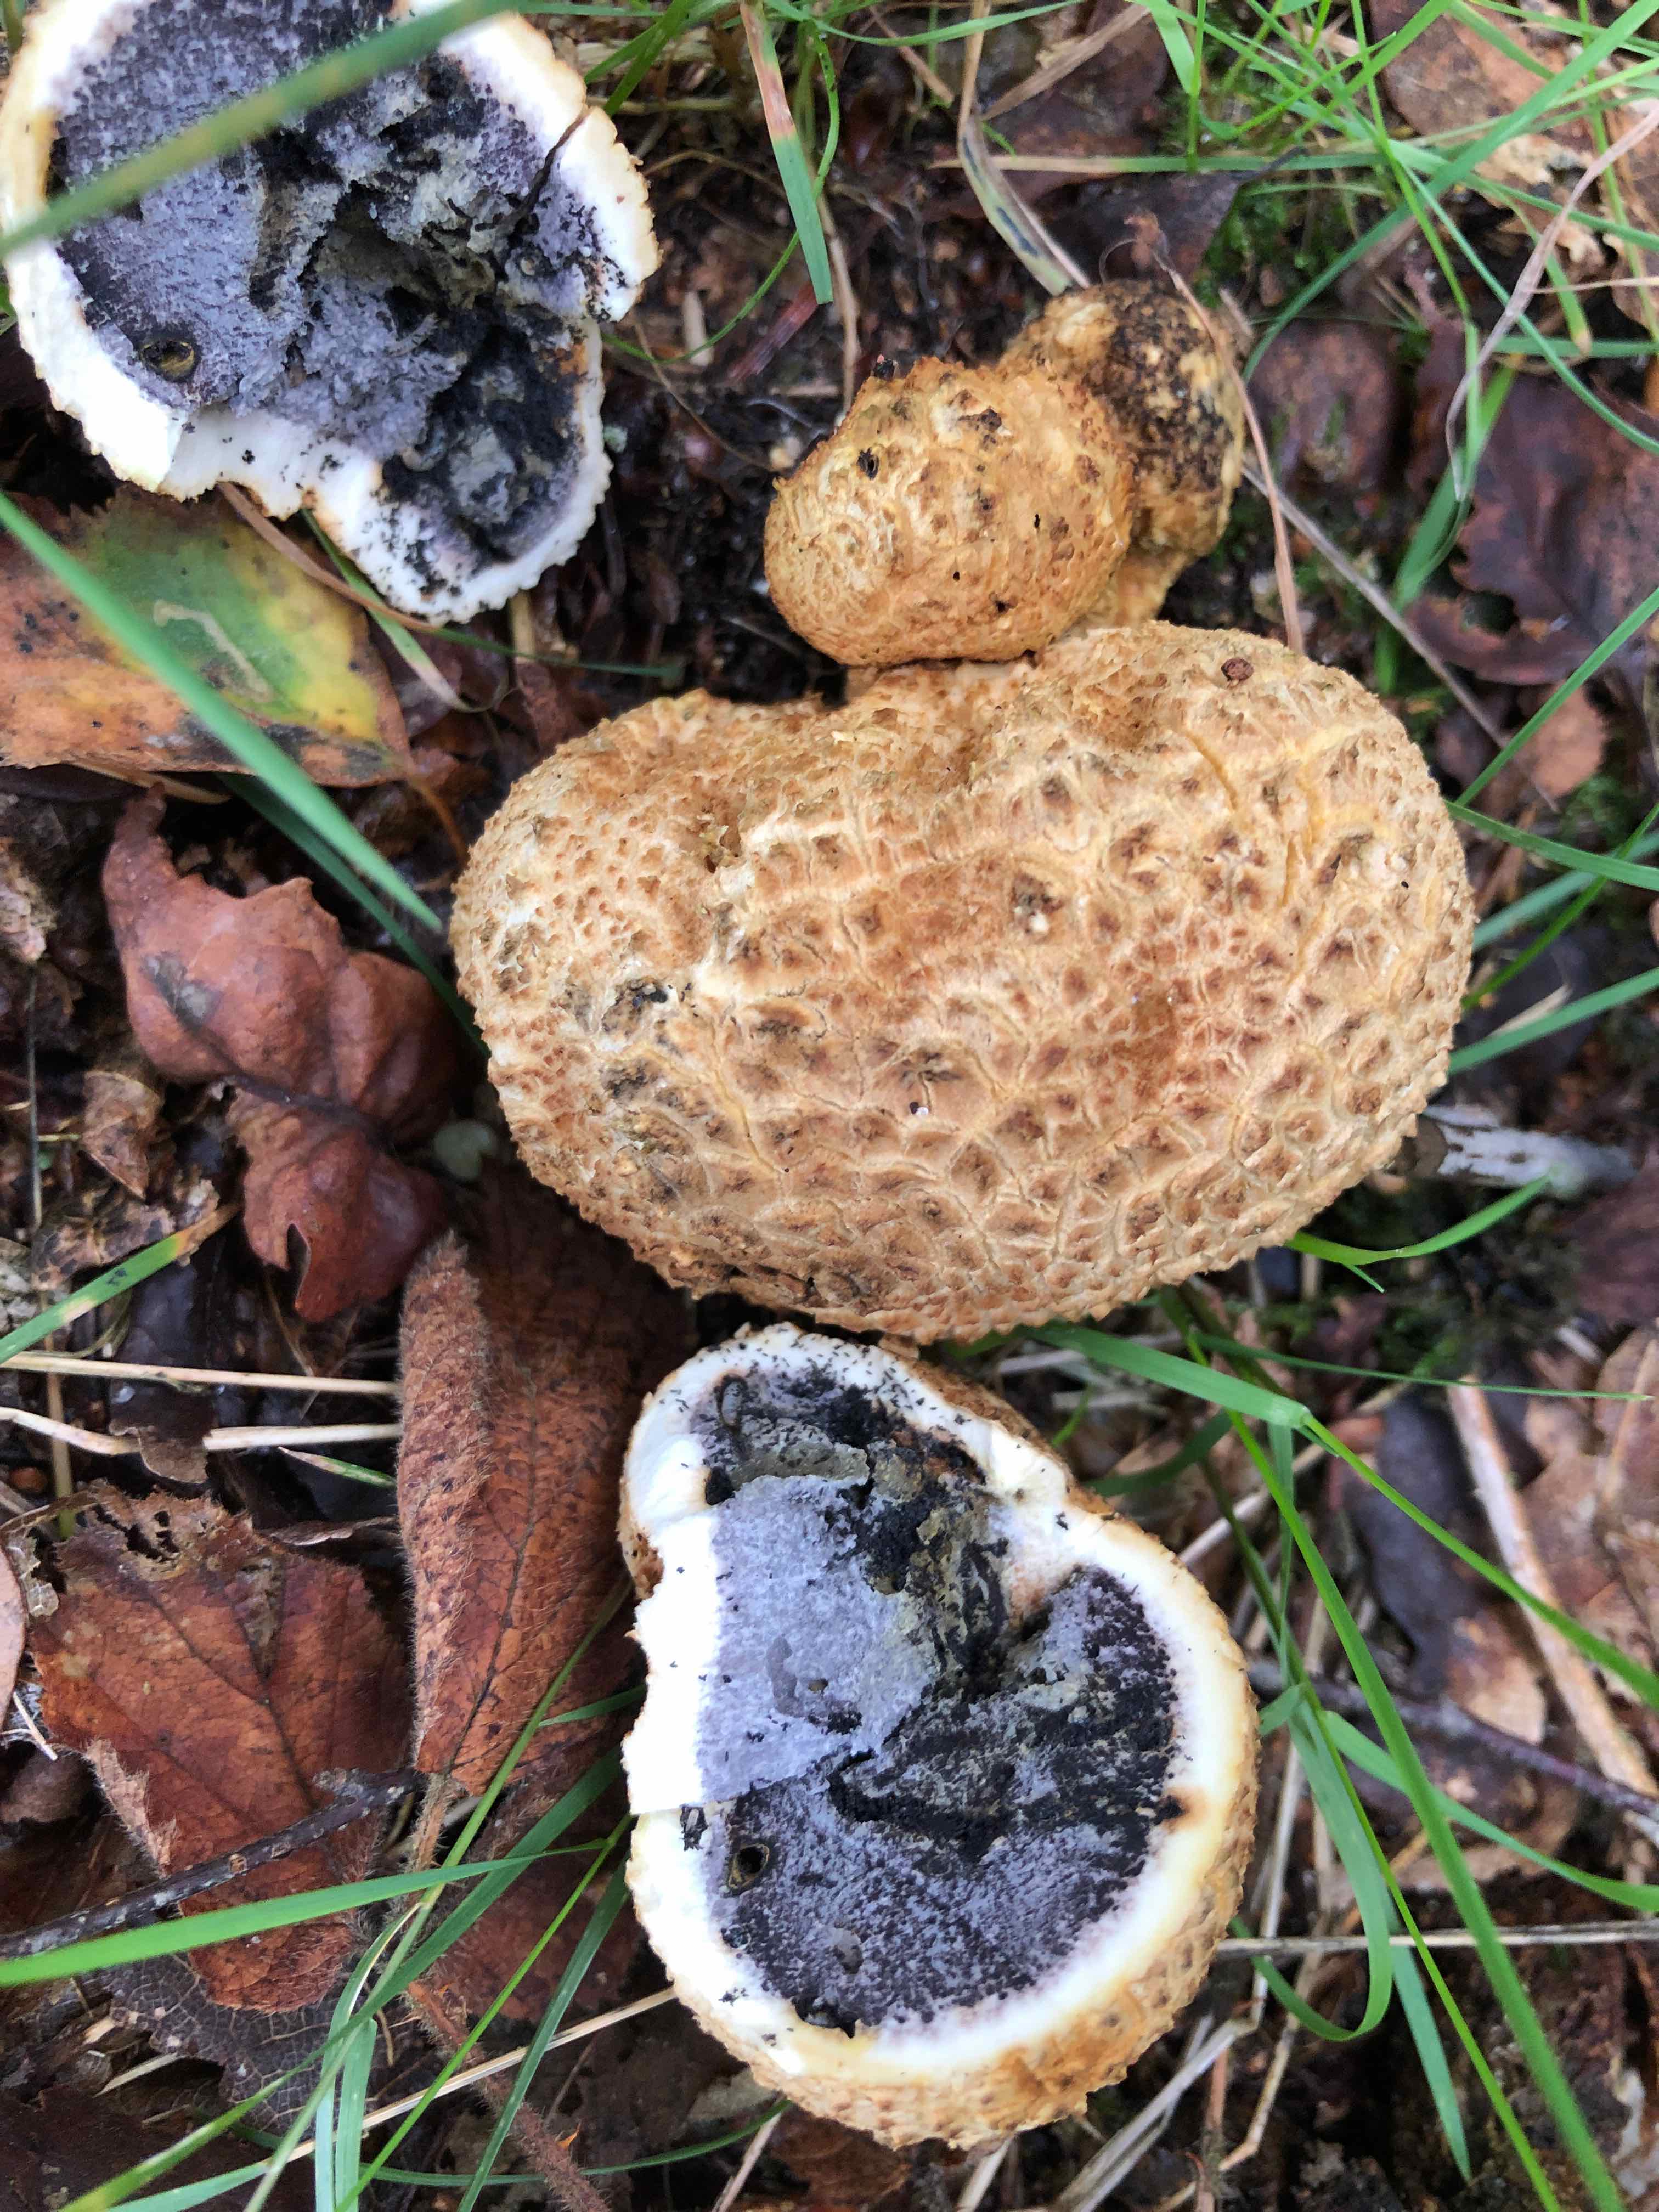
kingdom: Fungi
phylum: Basidiomycota
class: Agaricomycetes
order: Boletales
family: Sclerodermataceae
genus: Scleroderma
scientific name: Scleroderma citrinum
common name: almindelig bruskbold
